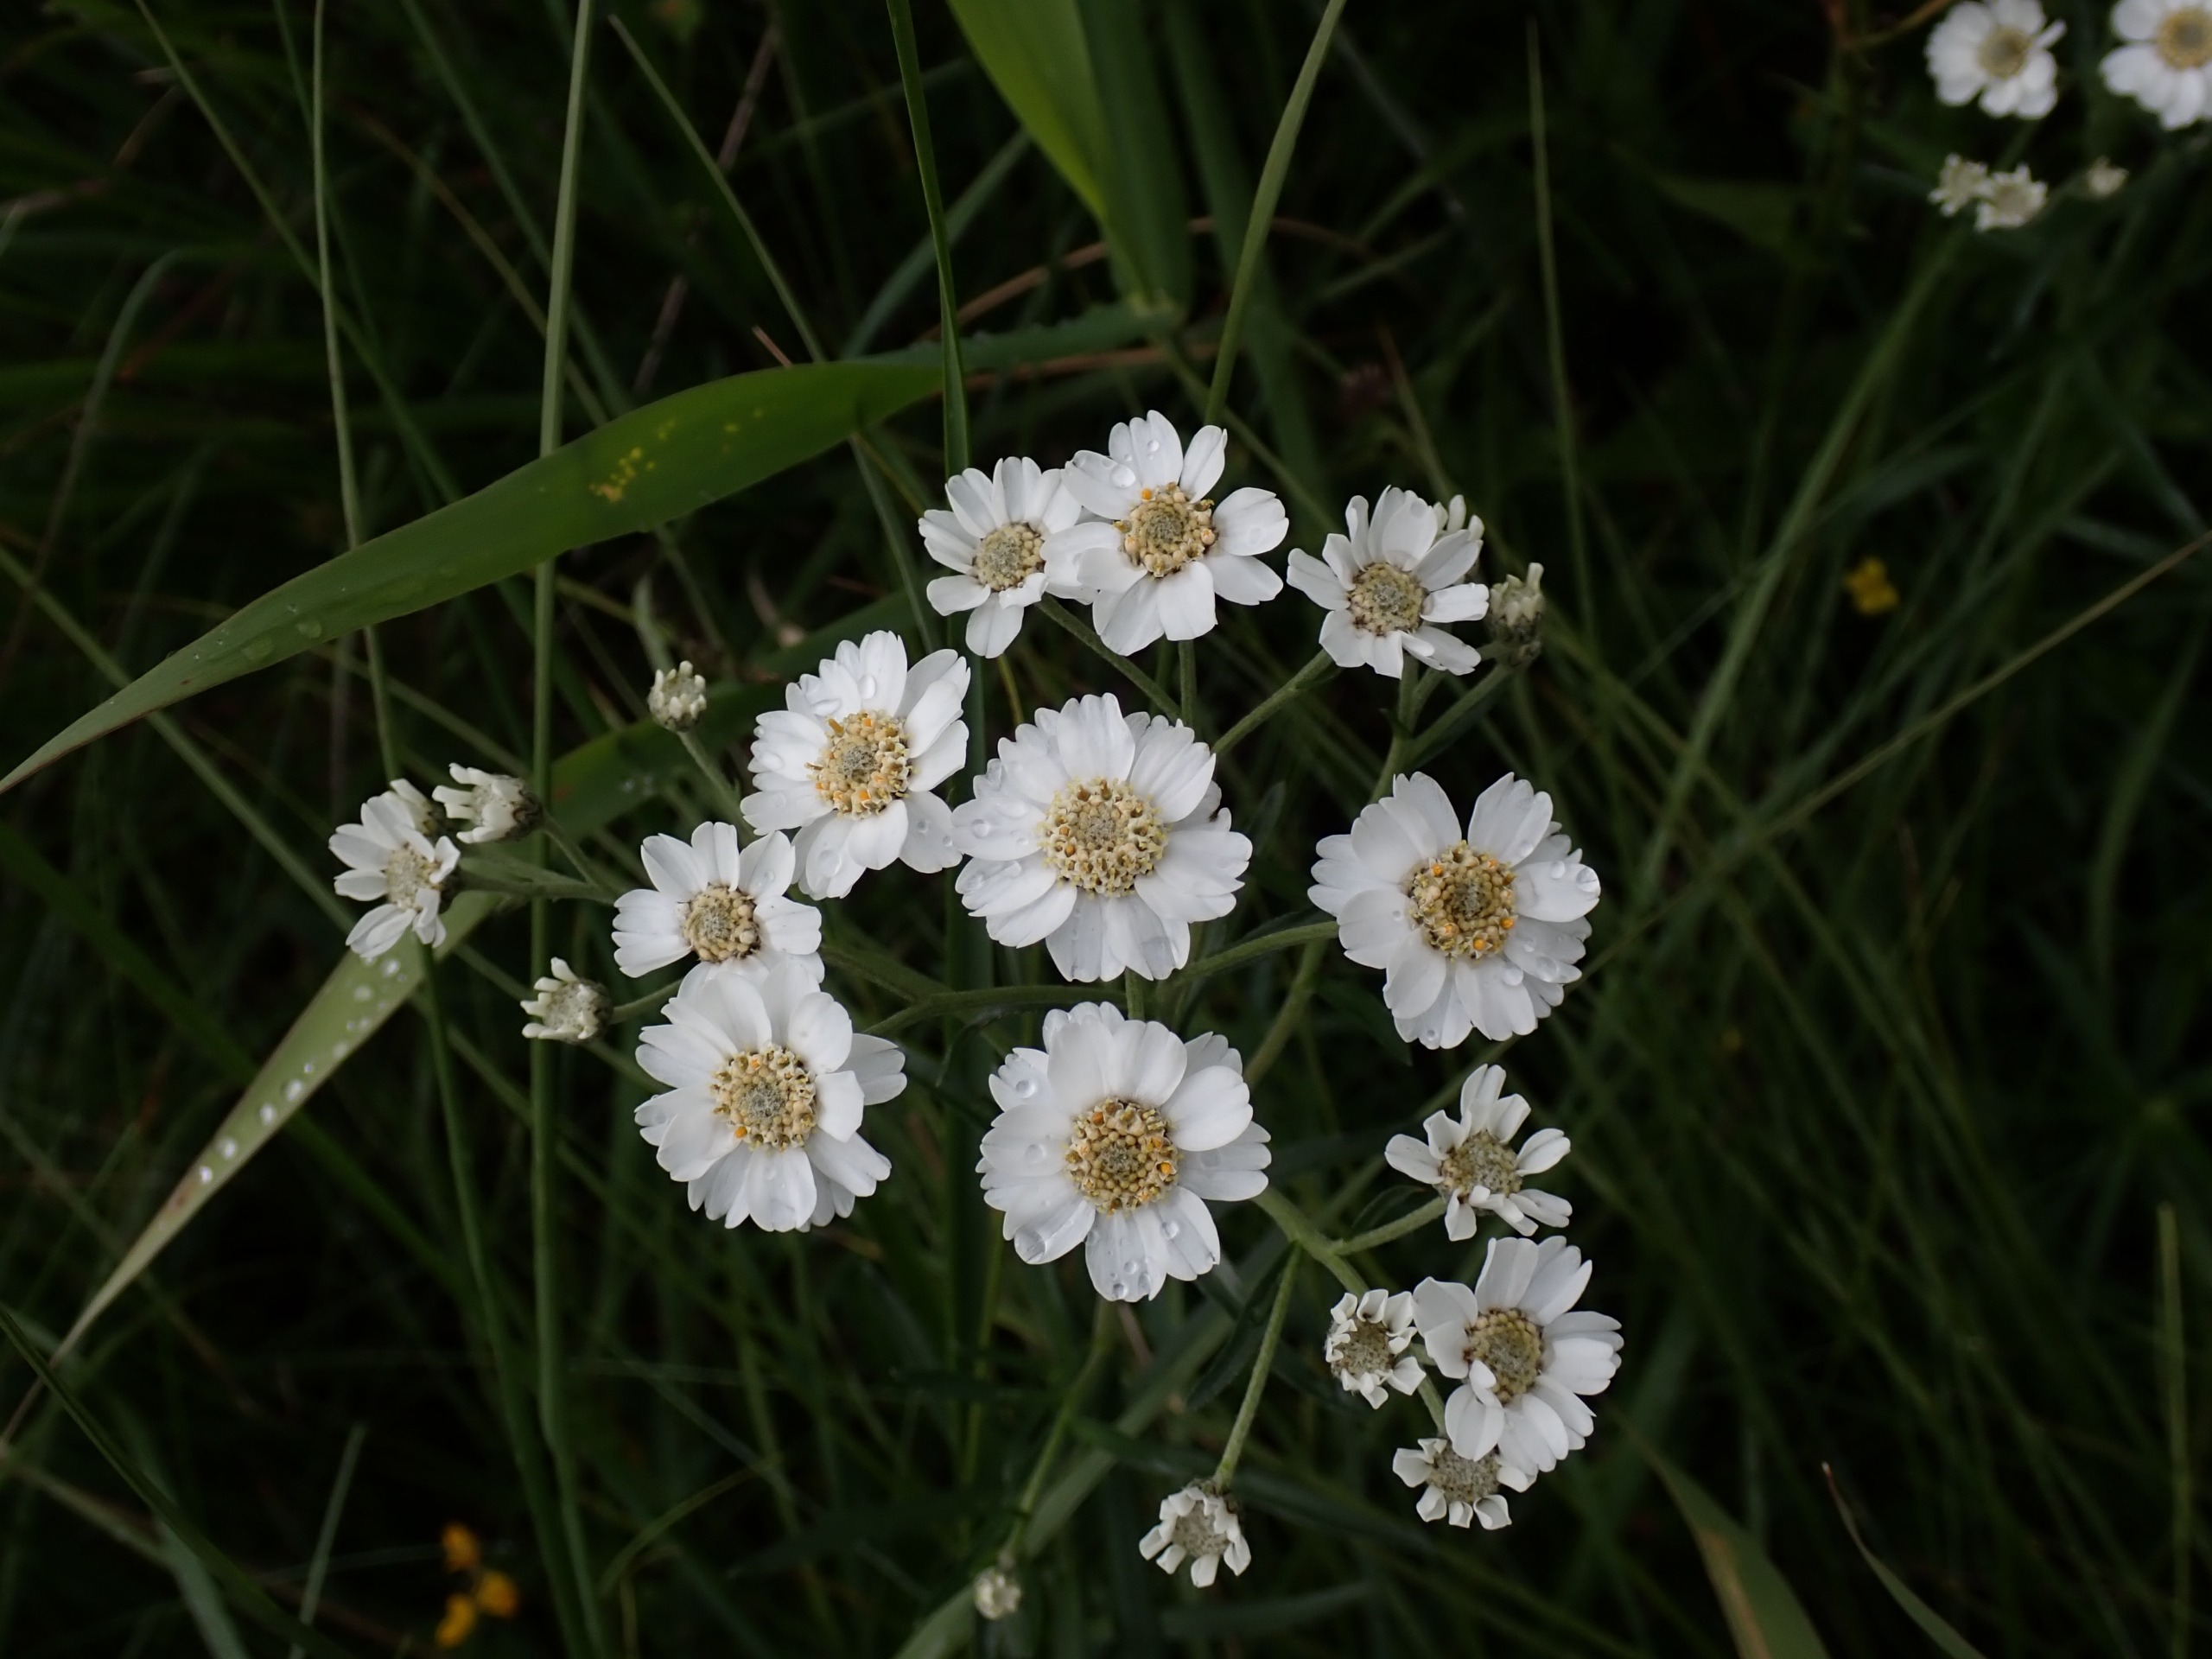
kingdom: Plantae
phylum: Tracheophyta
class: Magnoliopsida
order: Asterales
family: Asteraceae
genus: Achillea
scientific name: Achillea ptarmica
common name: Nyse-røllike
